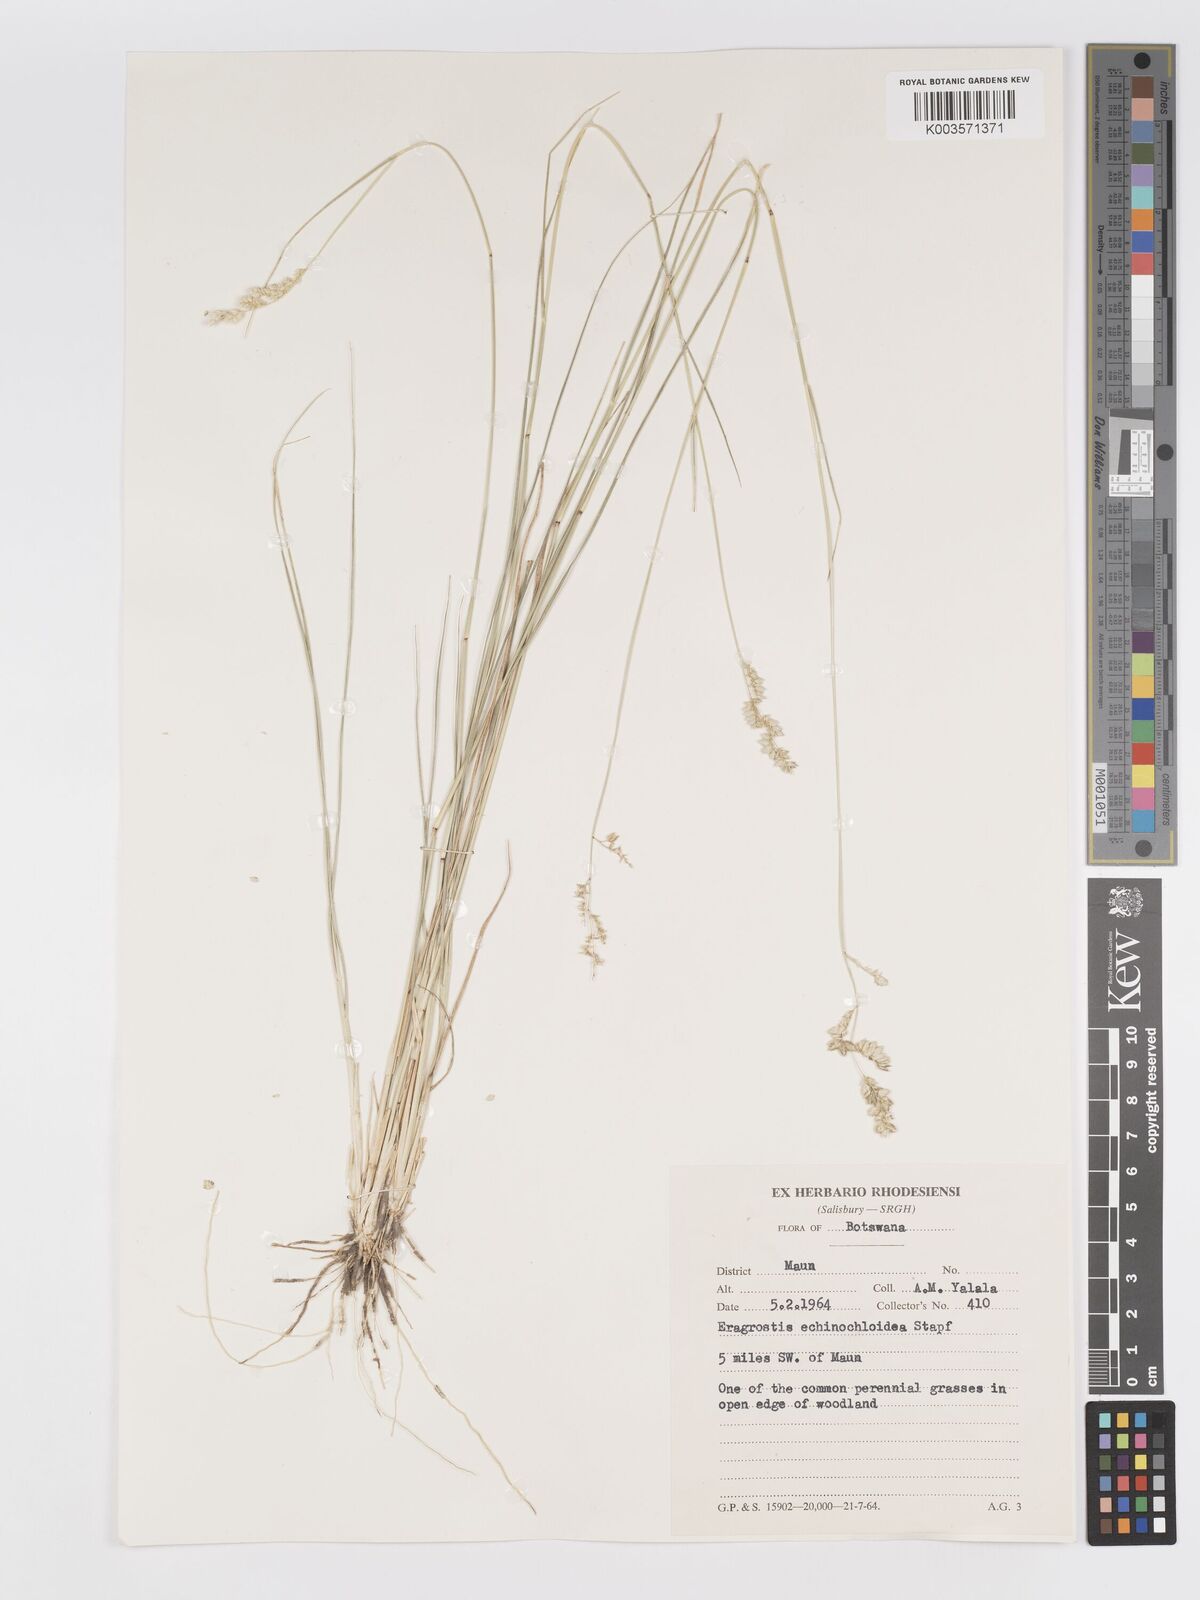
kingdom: Plantae
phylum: Tracheophyta
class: Liliopsida
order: Poales
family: Poaceae
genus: Eragrostis
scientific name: Eragrostis echinochloidea
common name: African lovegrass
